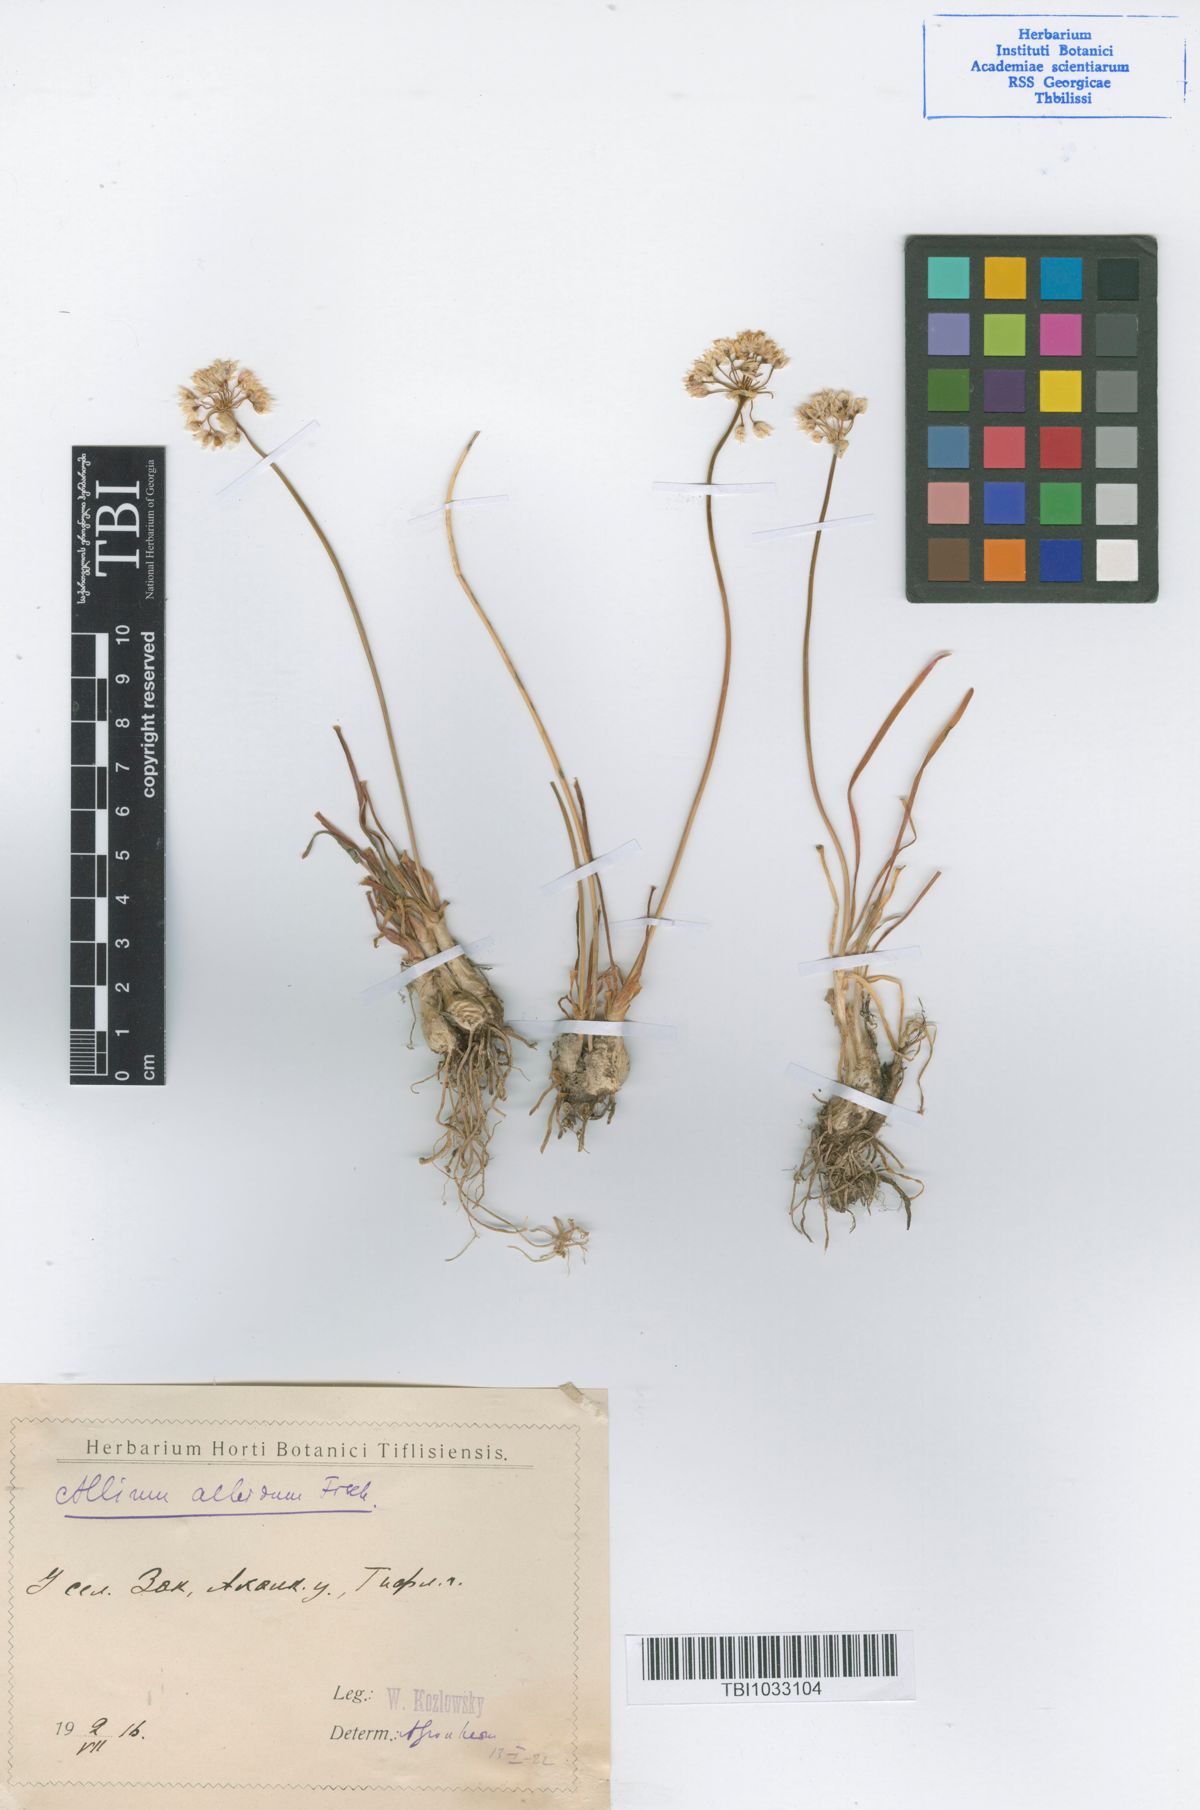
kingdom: Plantae
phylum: Tracheophyta
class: Liliopsida
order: Asparagales
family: Amaryllidaceae
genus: Allium
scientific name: Allium denudatum
